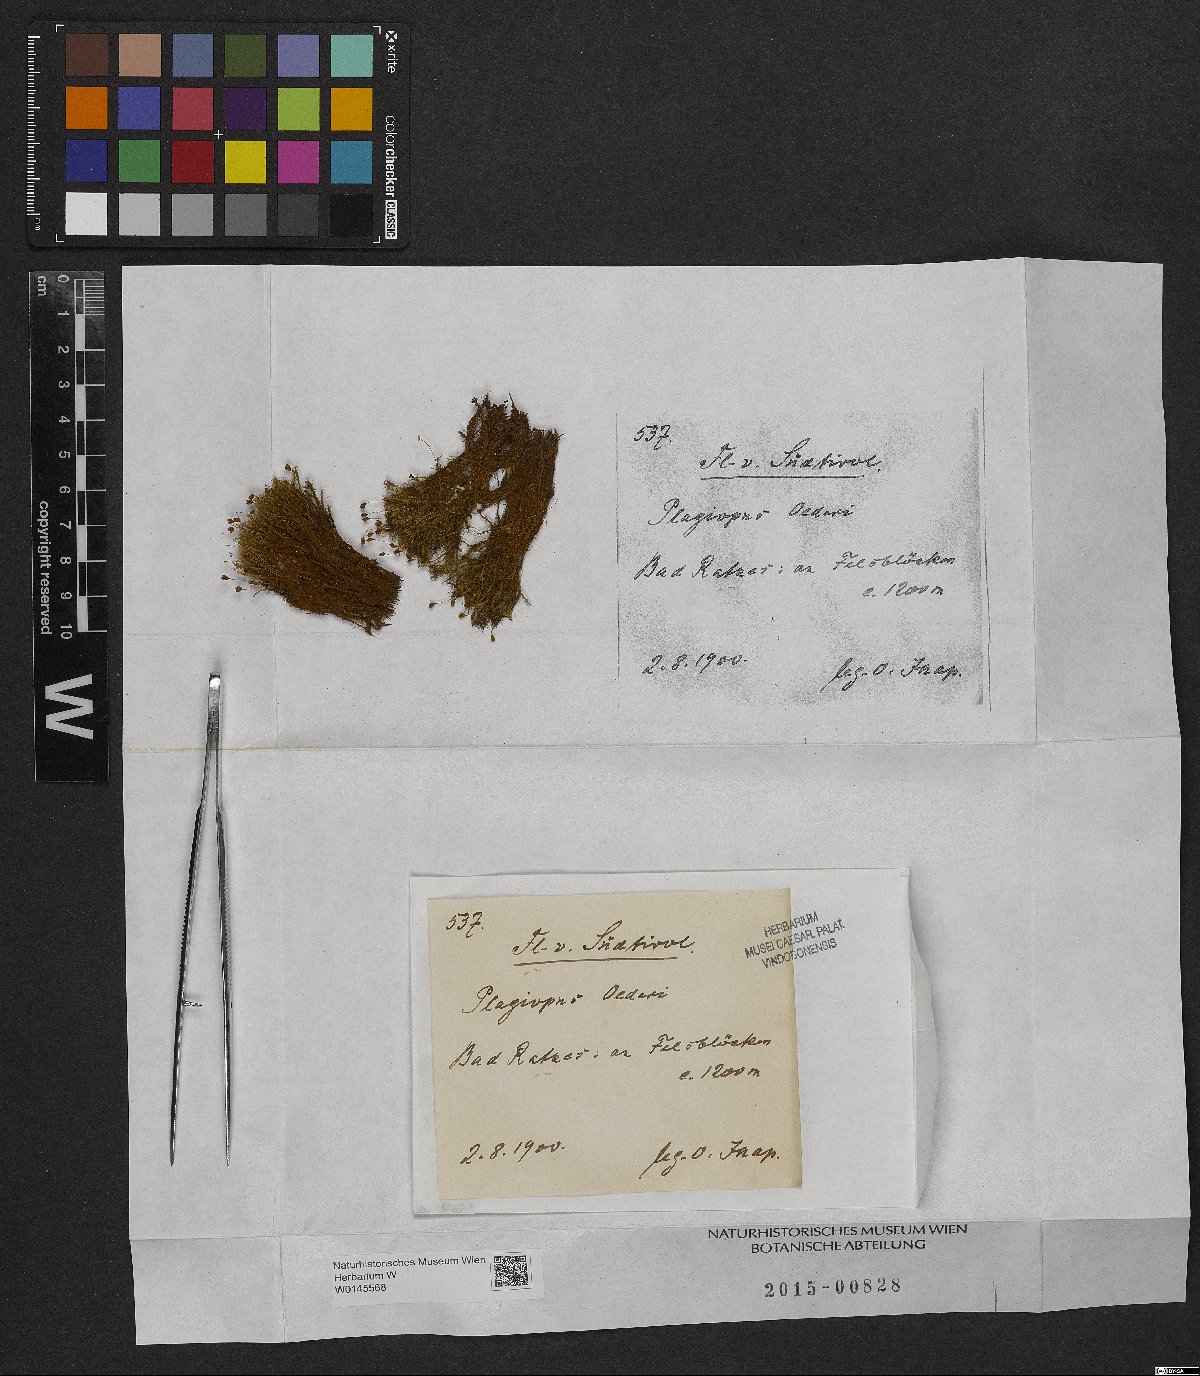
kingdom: Plantae
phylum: Bryophyta
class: Bryopsida
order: Bartramiales
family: Bartramiaceae
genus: Plagiopus
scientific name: Plagiopus oederianus
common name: Oeder's apple moss
